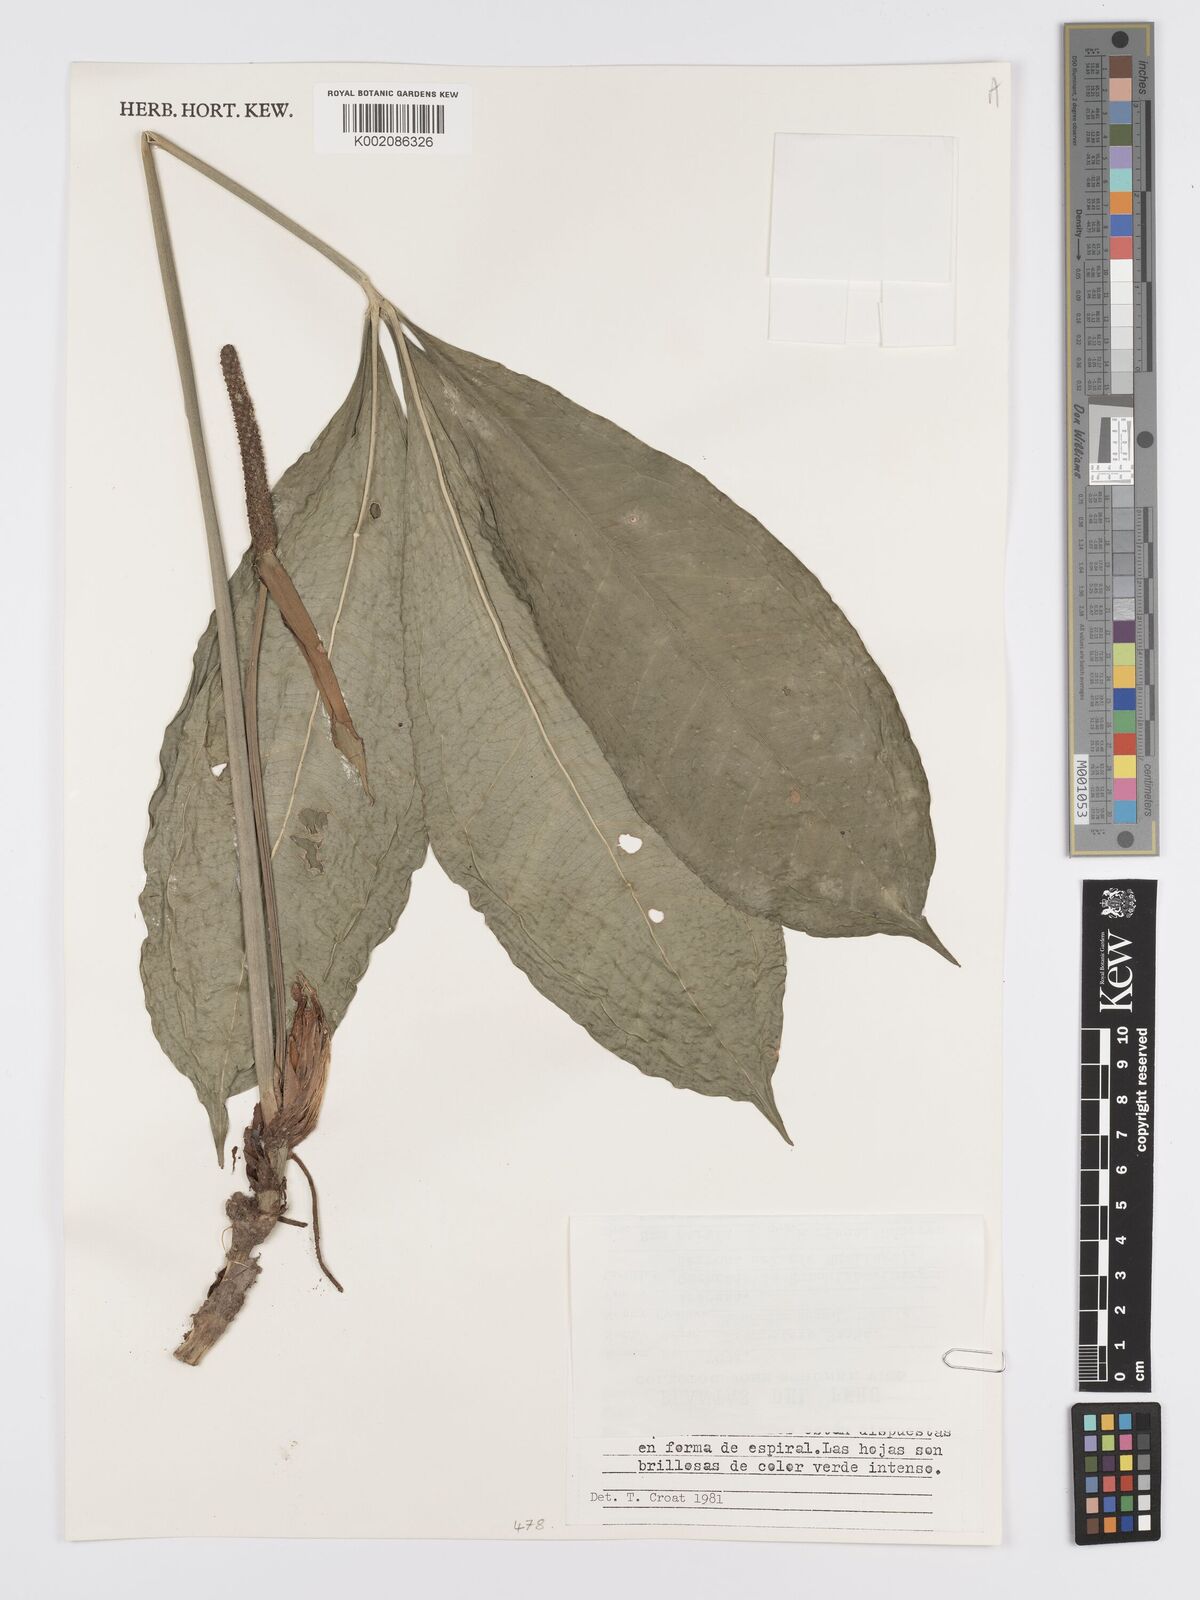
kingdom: Plantae
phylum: Tracheophyta
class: Liliopsida
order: Alismatales
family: Araceae
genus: Anthurium
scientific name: Anthurium kunthii
